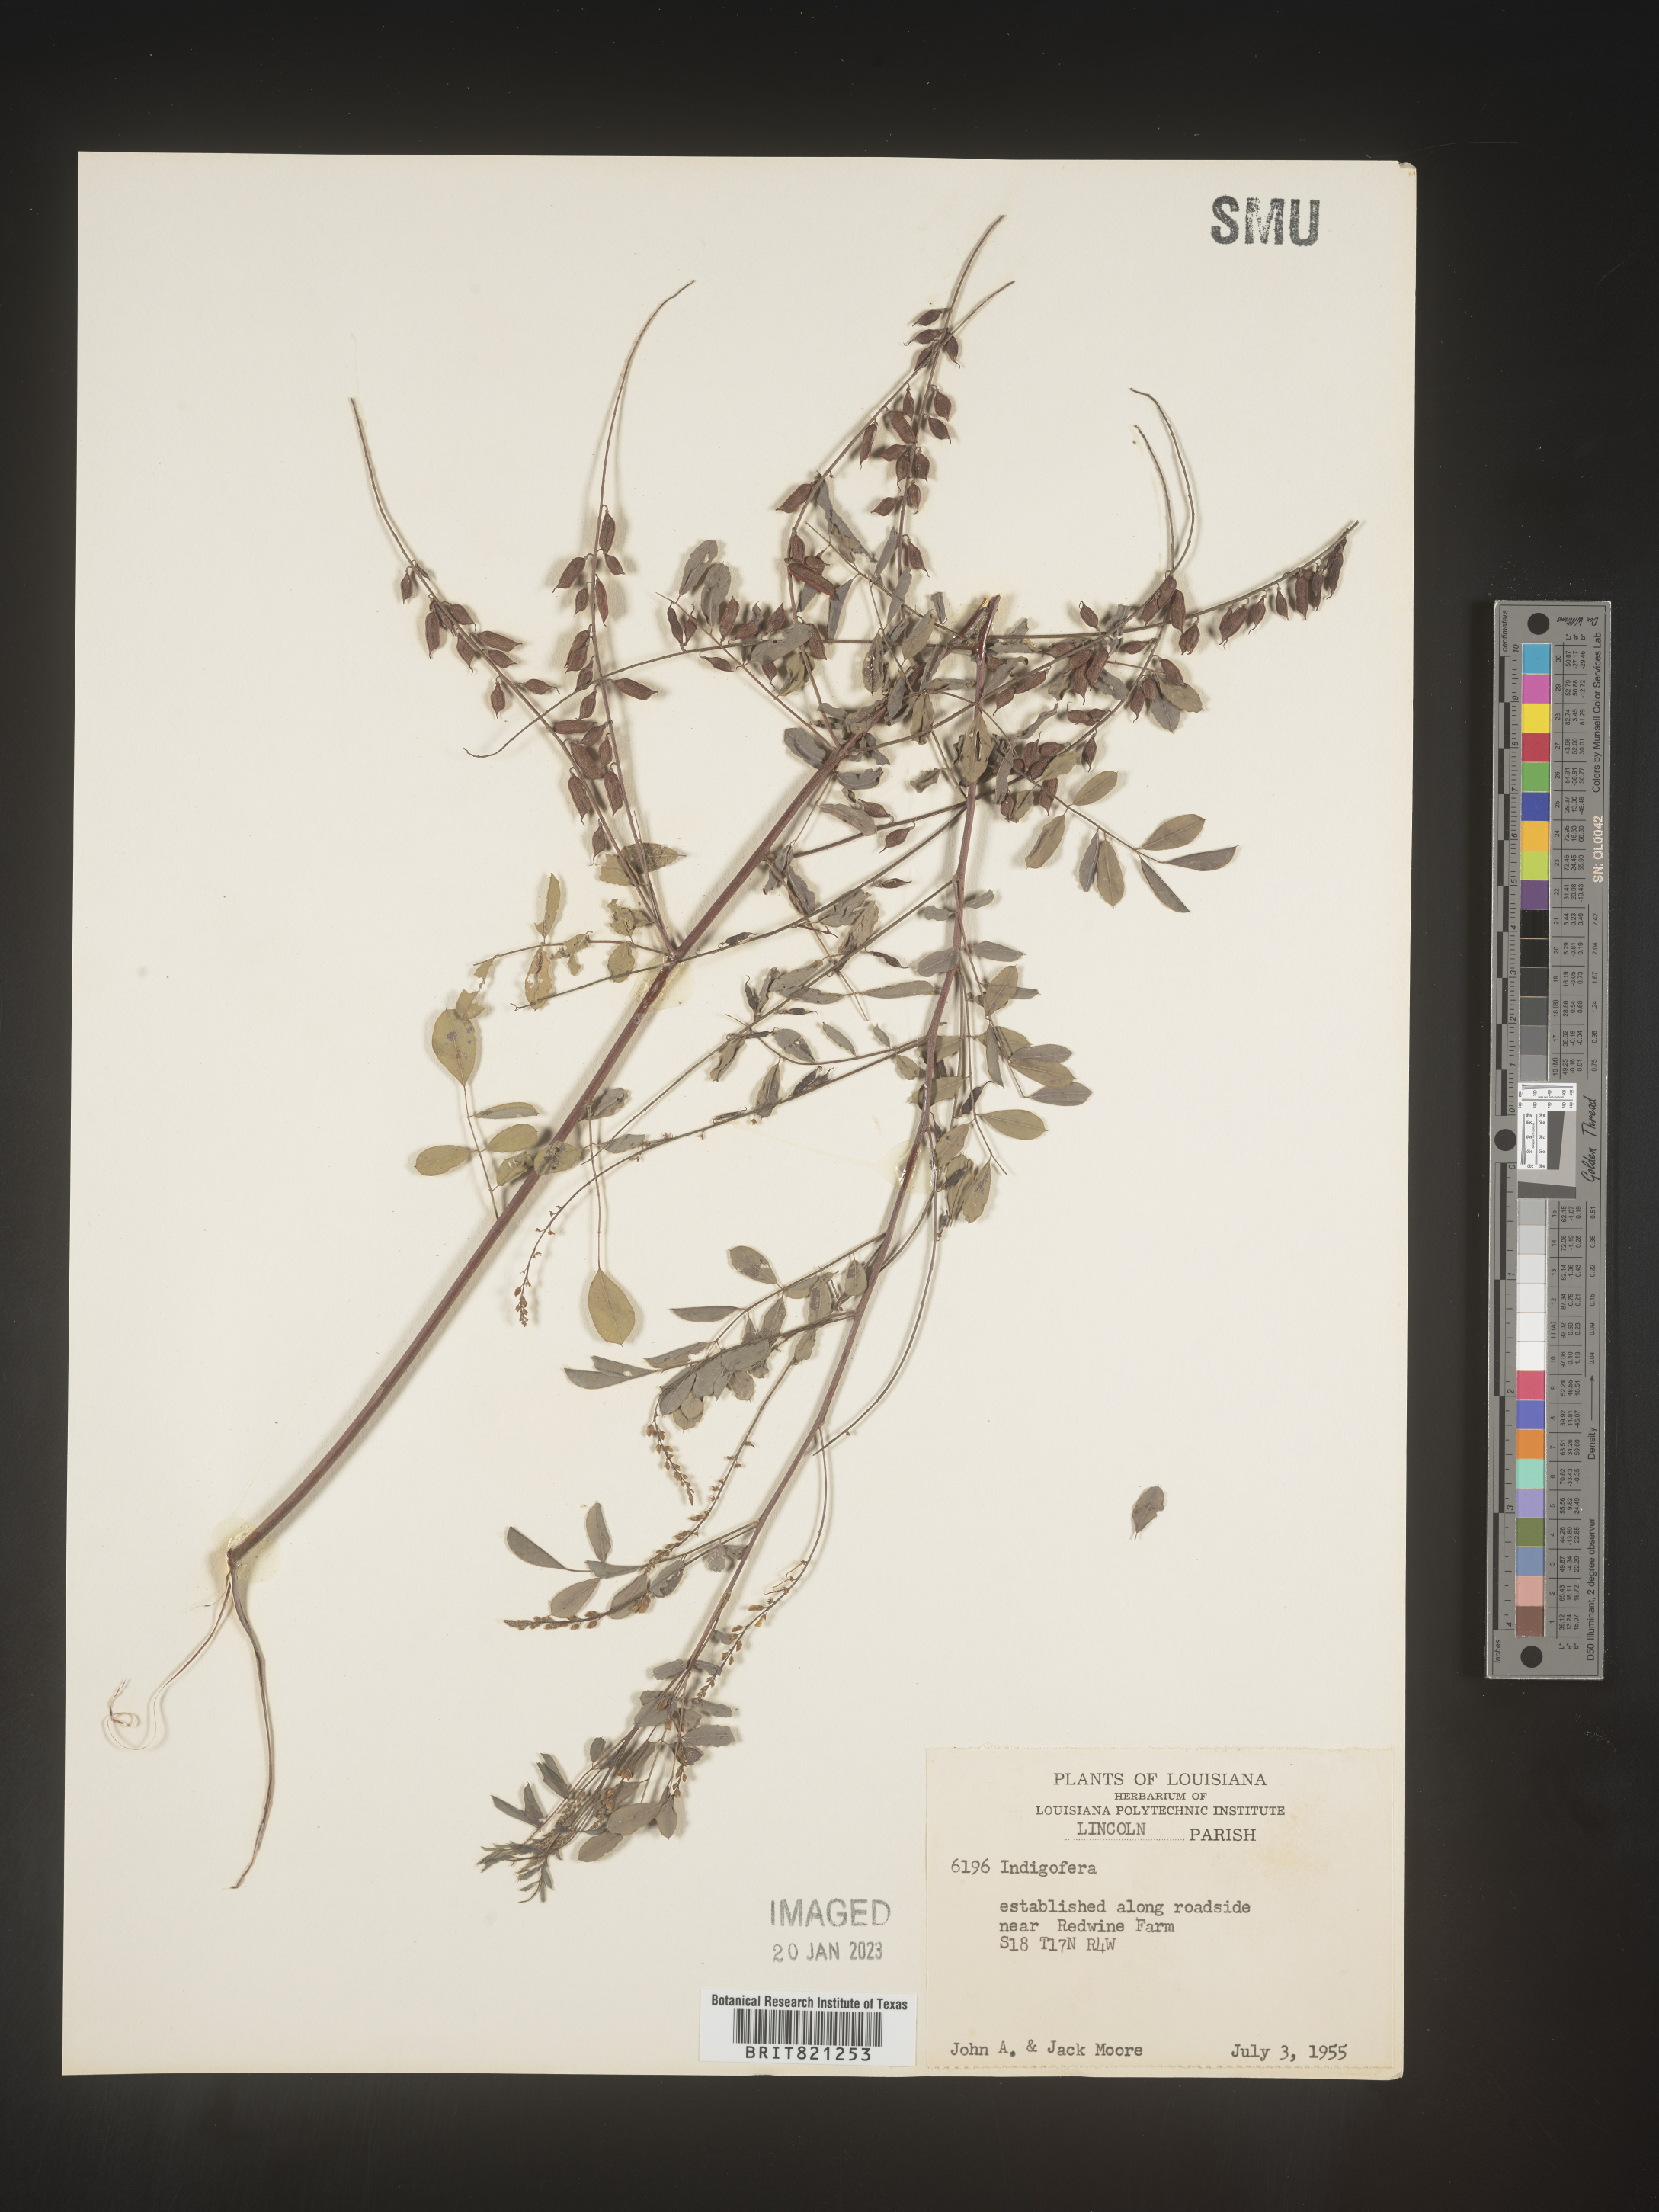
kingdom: Plantae
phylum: Tracheophyta
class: Magnoliopsida
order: Fabales
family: Fabaceae
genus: Indigofera
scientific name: Indigofera
